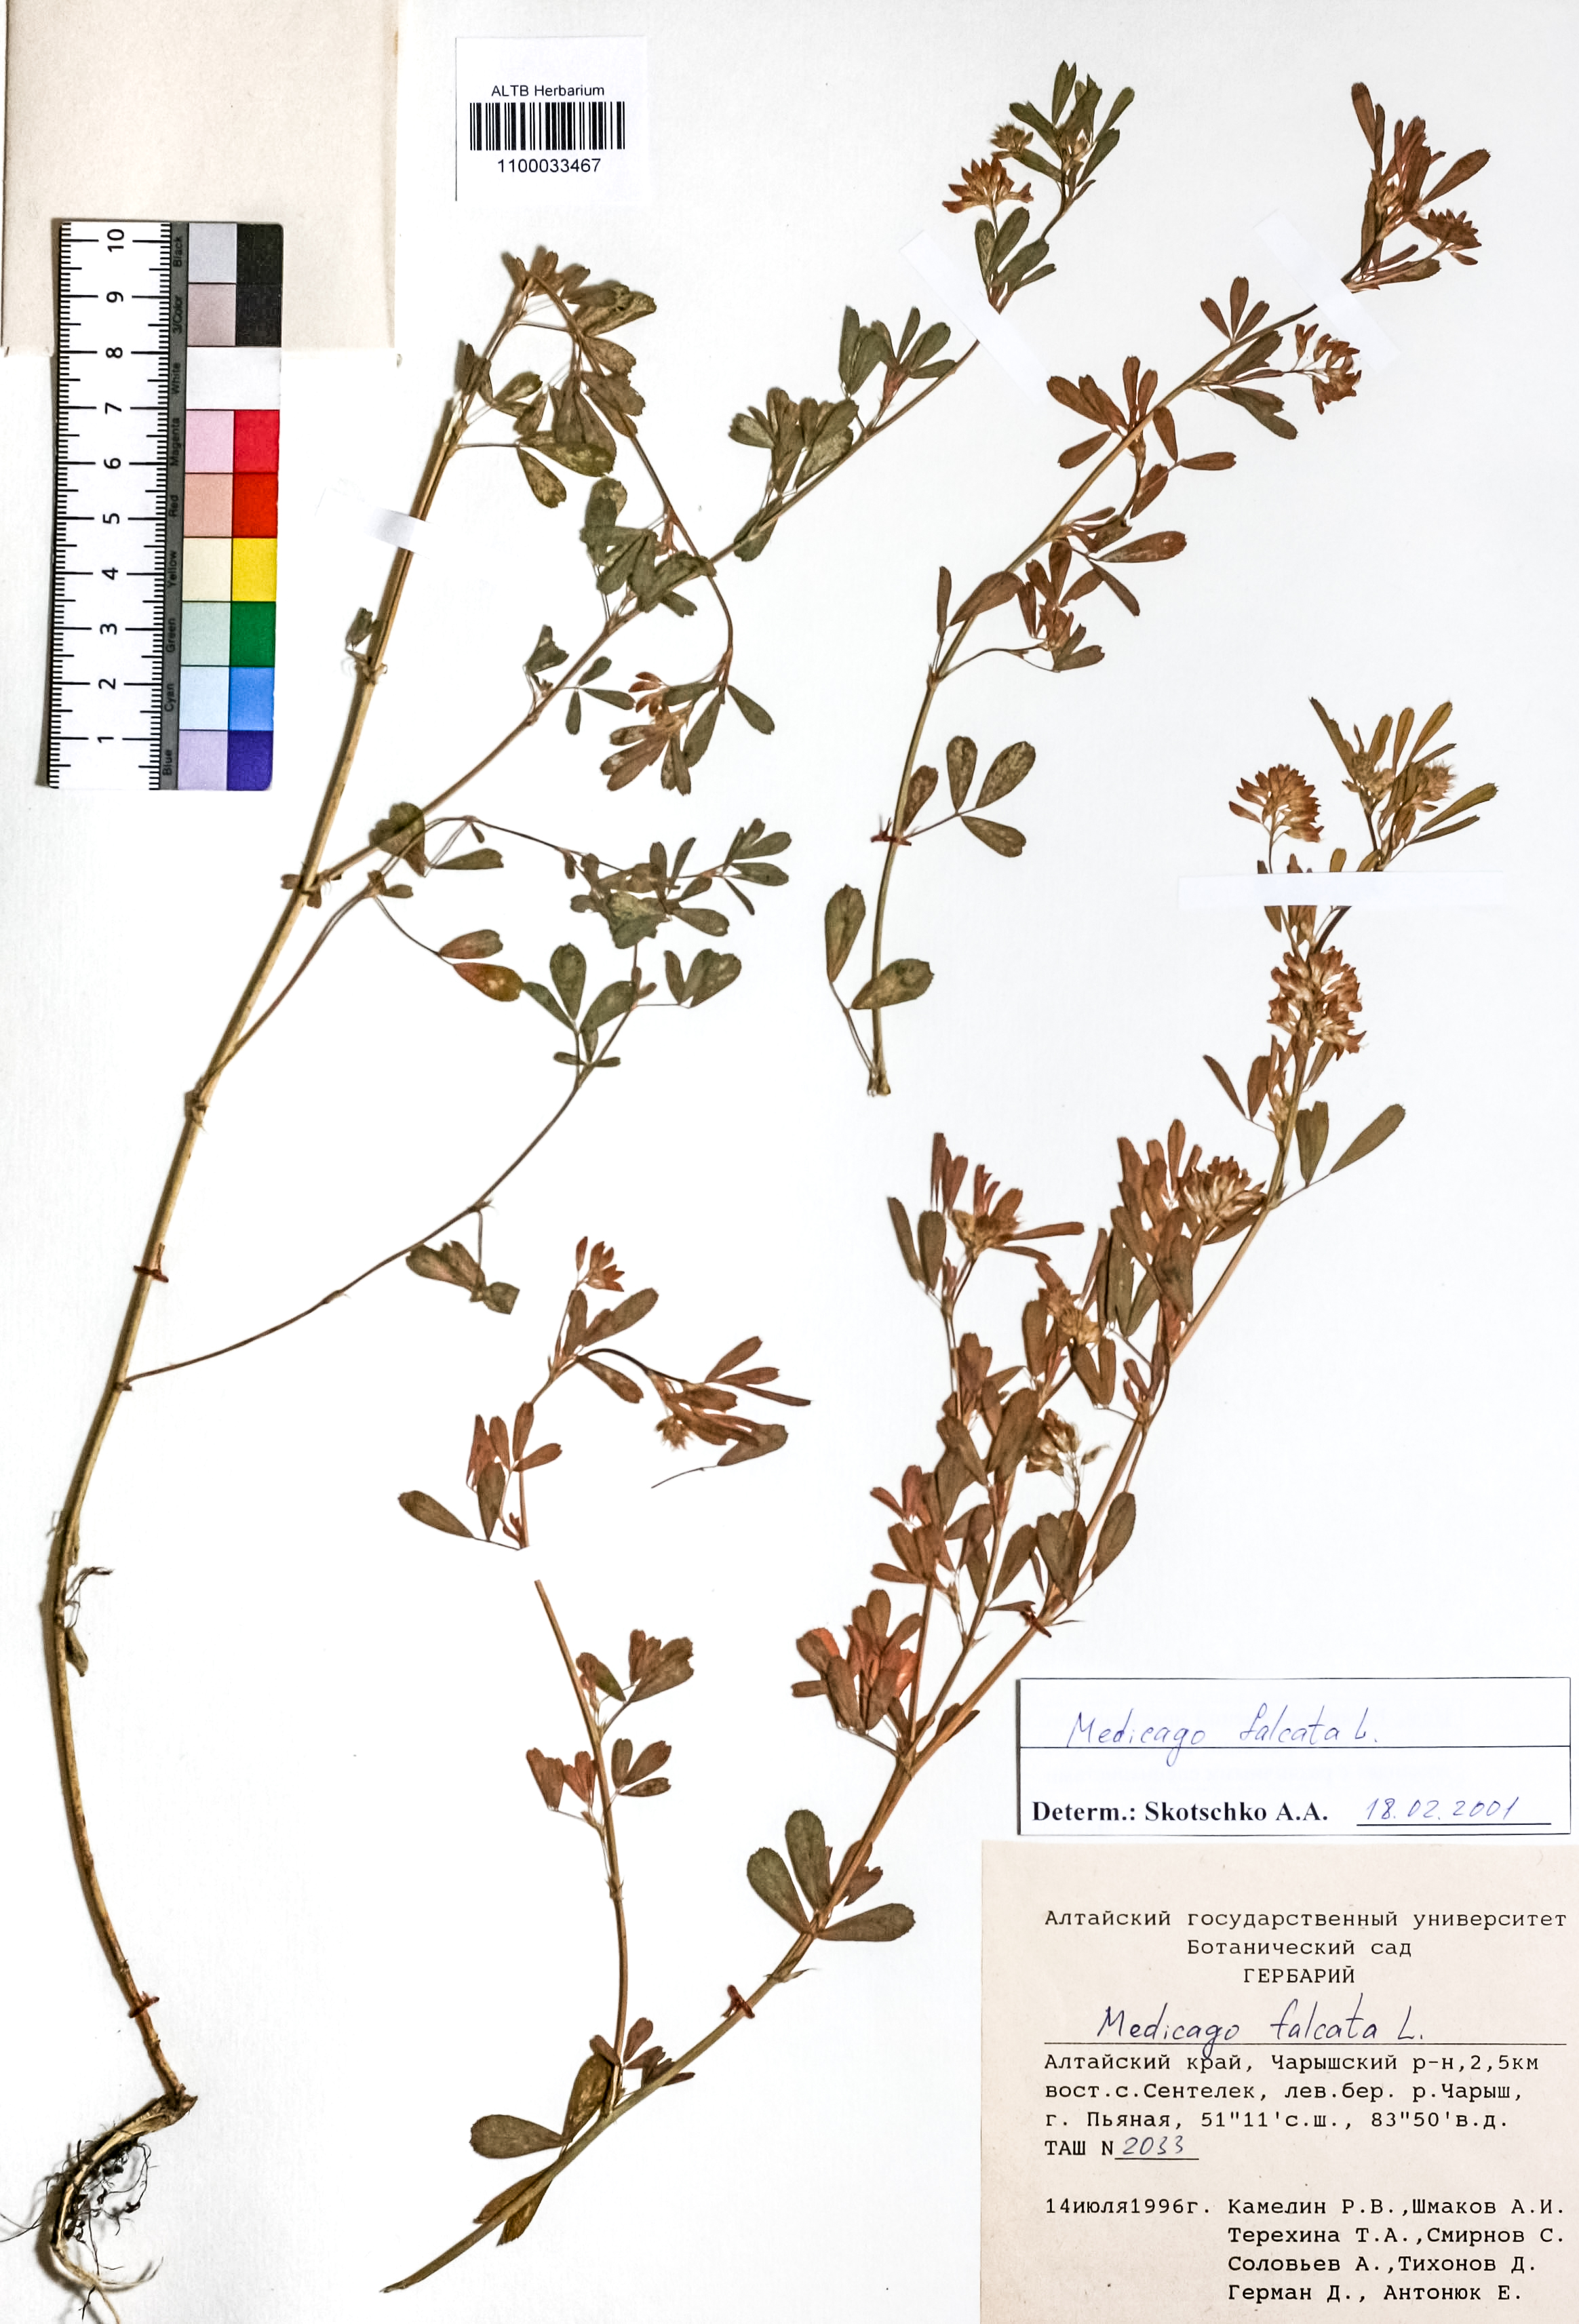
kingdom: Plantae
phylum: Tracheophyta
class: Magnoliopsida
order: Fabales
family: Fabaceae
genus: Medicago
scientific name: Medicago falcata
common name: Sickle medick
